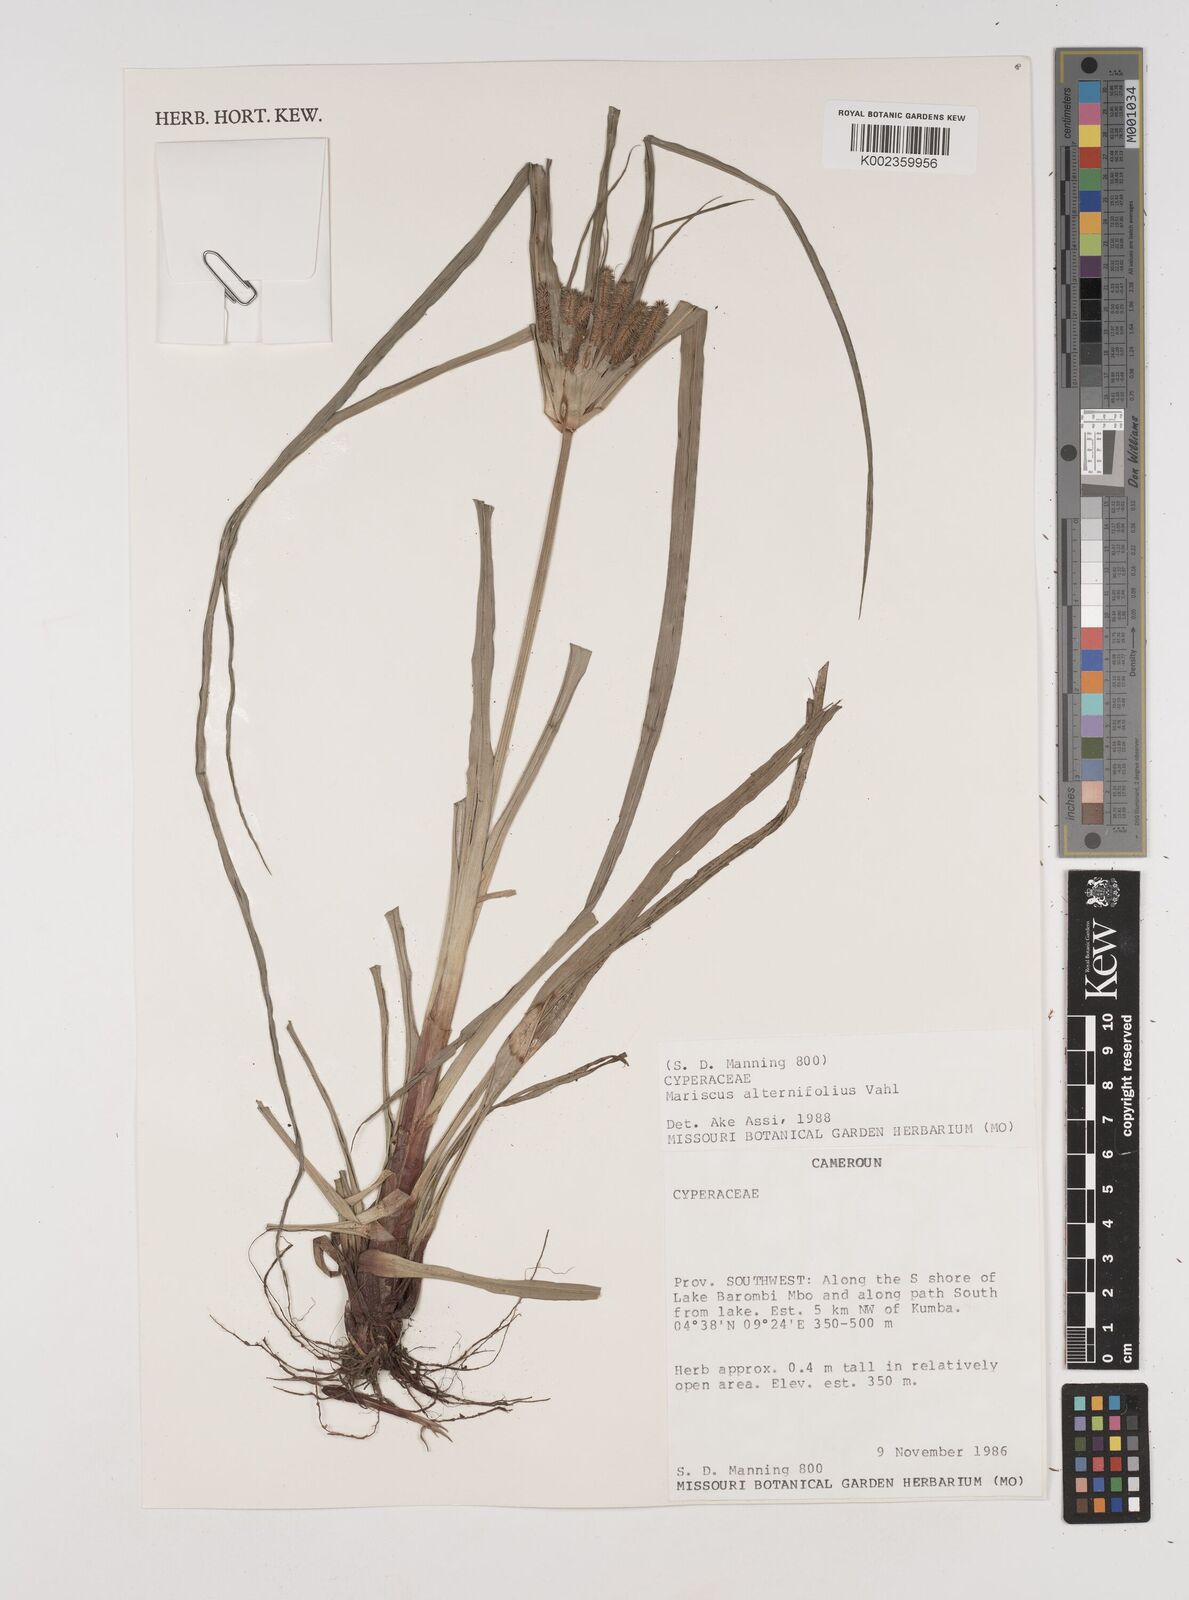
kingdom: Plantae
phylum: Tracheophyta
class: Liliopsida
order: Poales
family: Cyperaceae
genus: Cyperus
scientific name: Cyperus cyperoides
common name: Pacific island flat sedge
